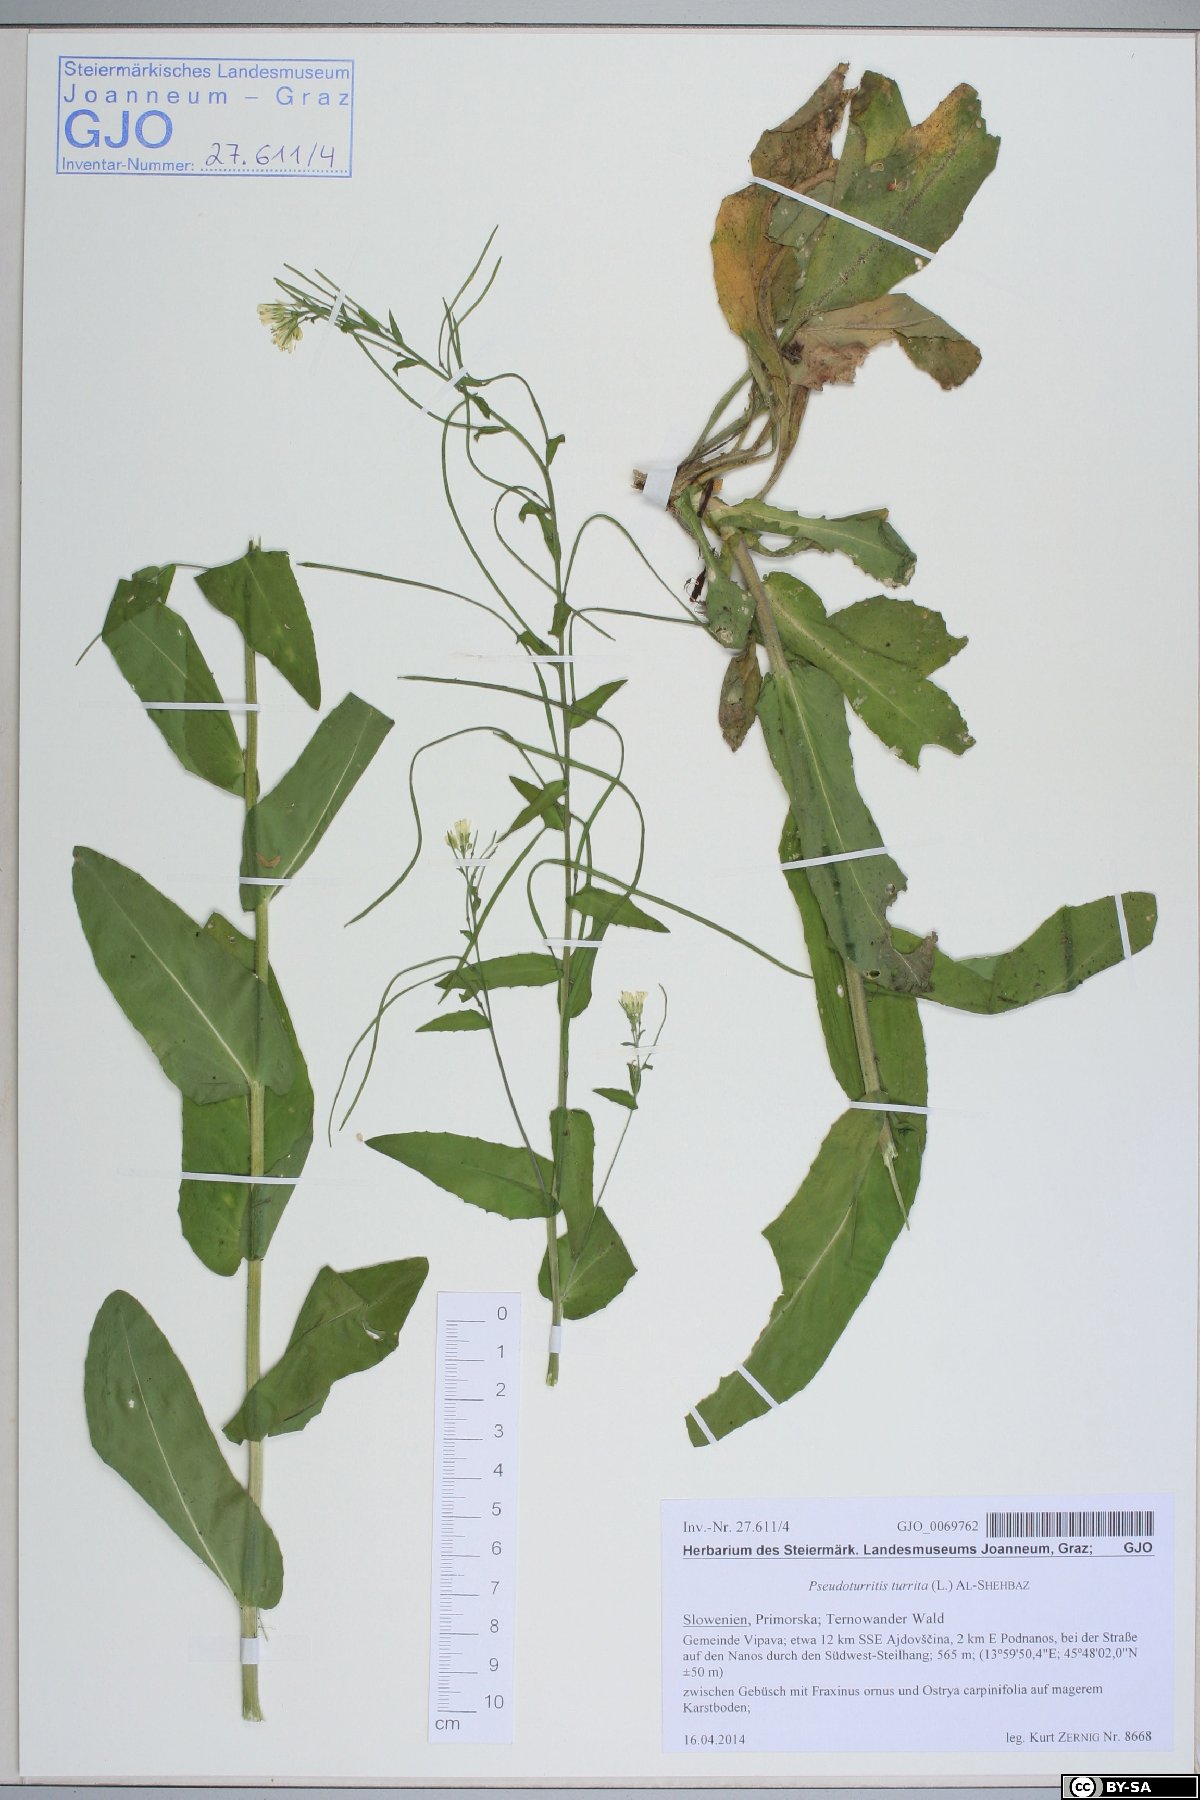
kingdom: Plantae
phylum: Tracheophyta
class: Magnoliopsida
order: Brassicales
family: Brassicaceae
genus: Pseudoturritis
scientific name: Pseudoturritis turrita
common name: Tower cress
